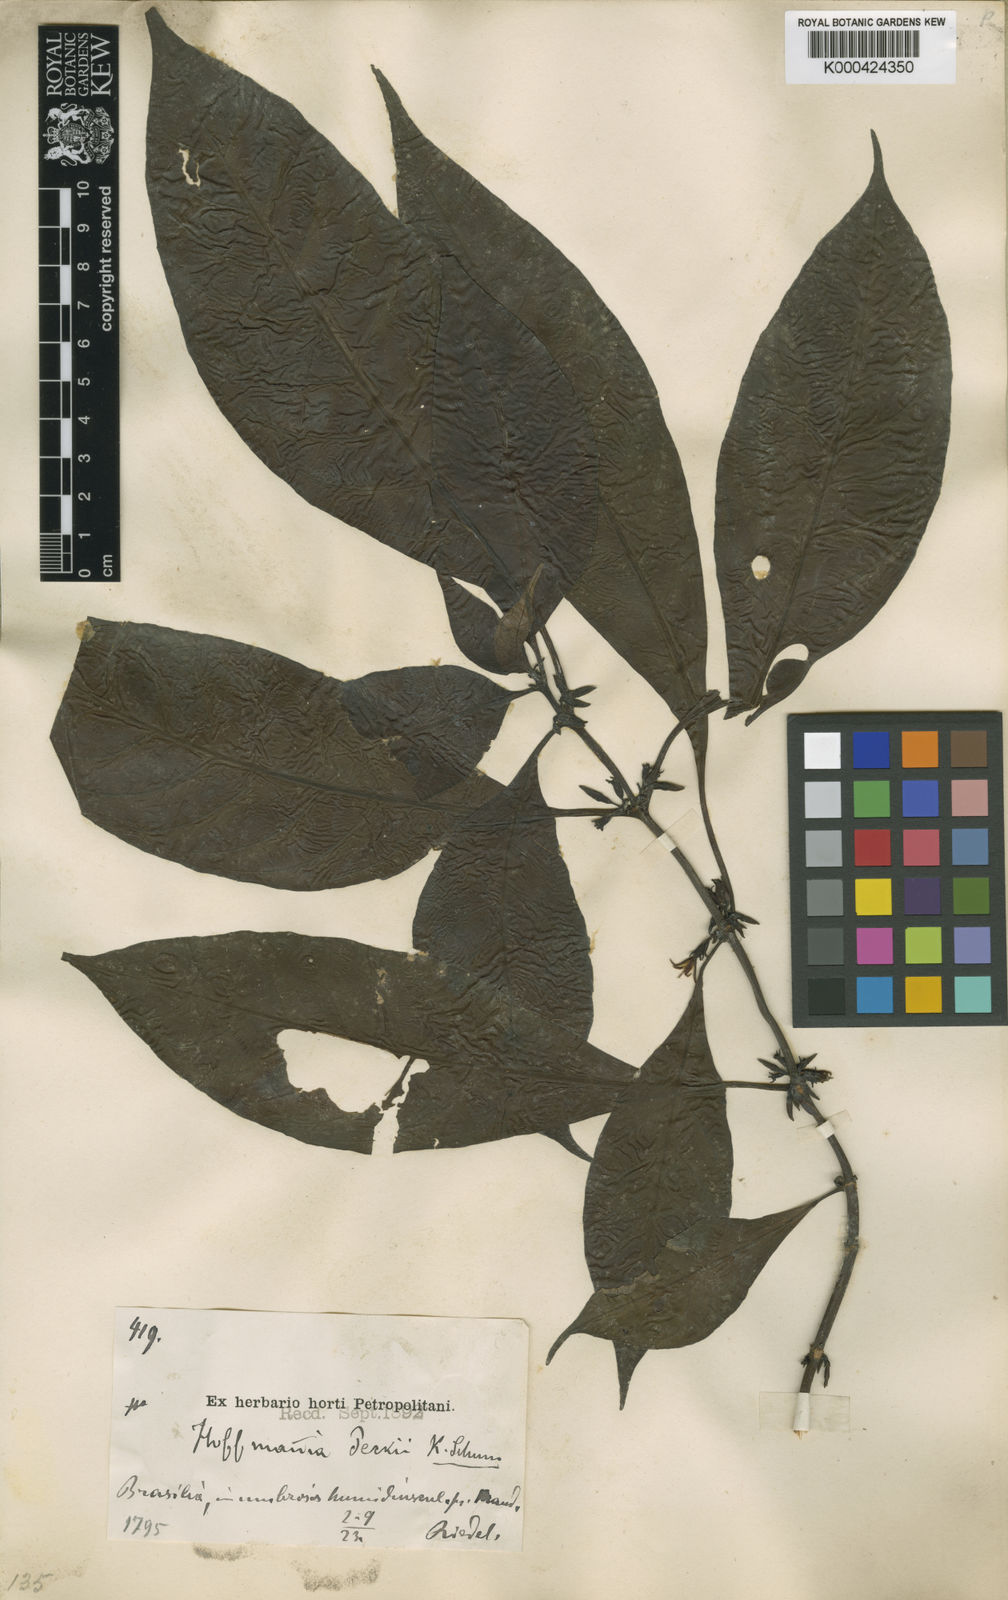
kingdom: Plantae
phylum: Tracheophyta
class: Magnoliopsida
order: Gentianales
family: Rubiaceae
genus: Hoffmannia
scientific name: Hoffmannia peckii
